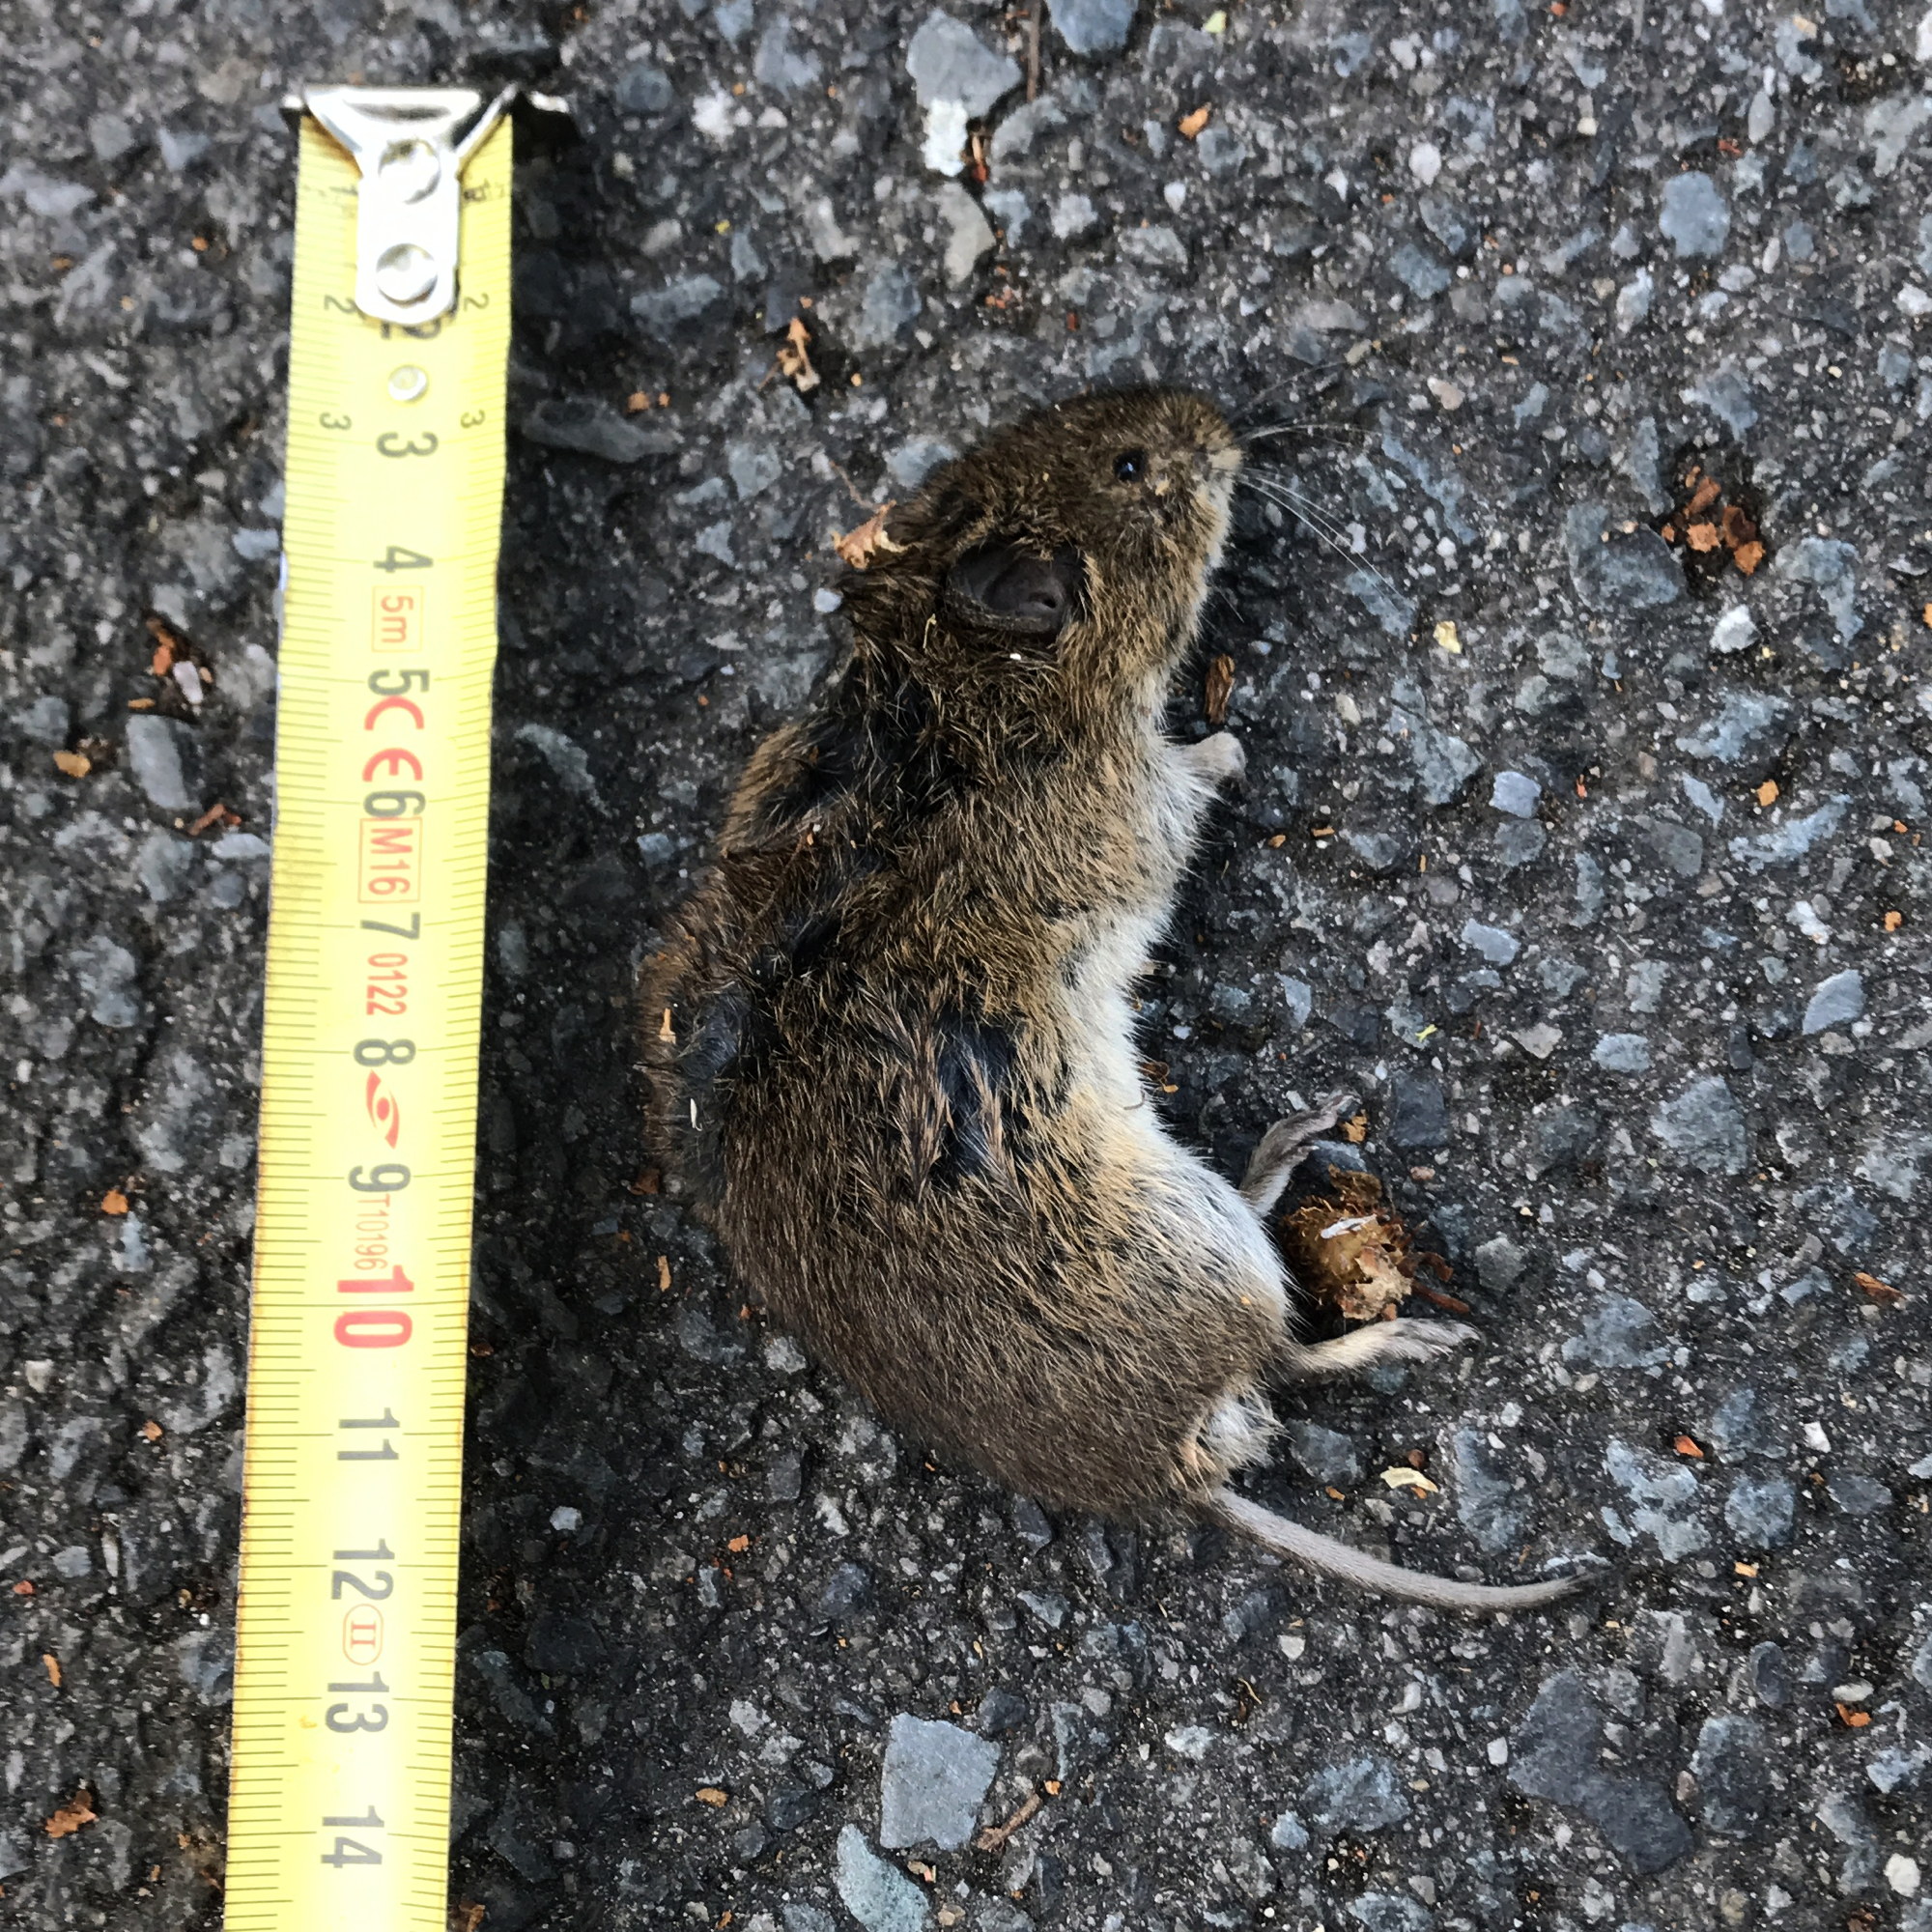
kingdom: Animalia
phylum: Chordata
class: Mammalia
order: Rodentia
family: Cricetidae
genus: Microtus
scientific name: Microtus
